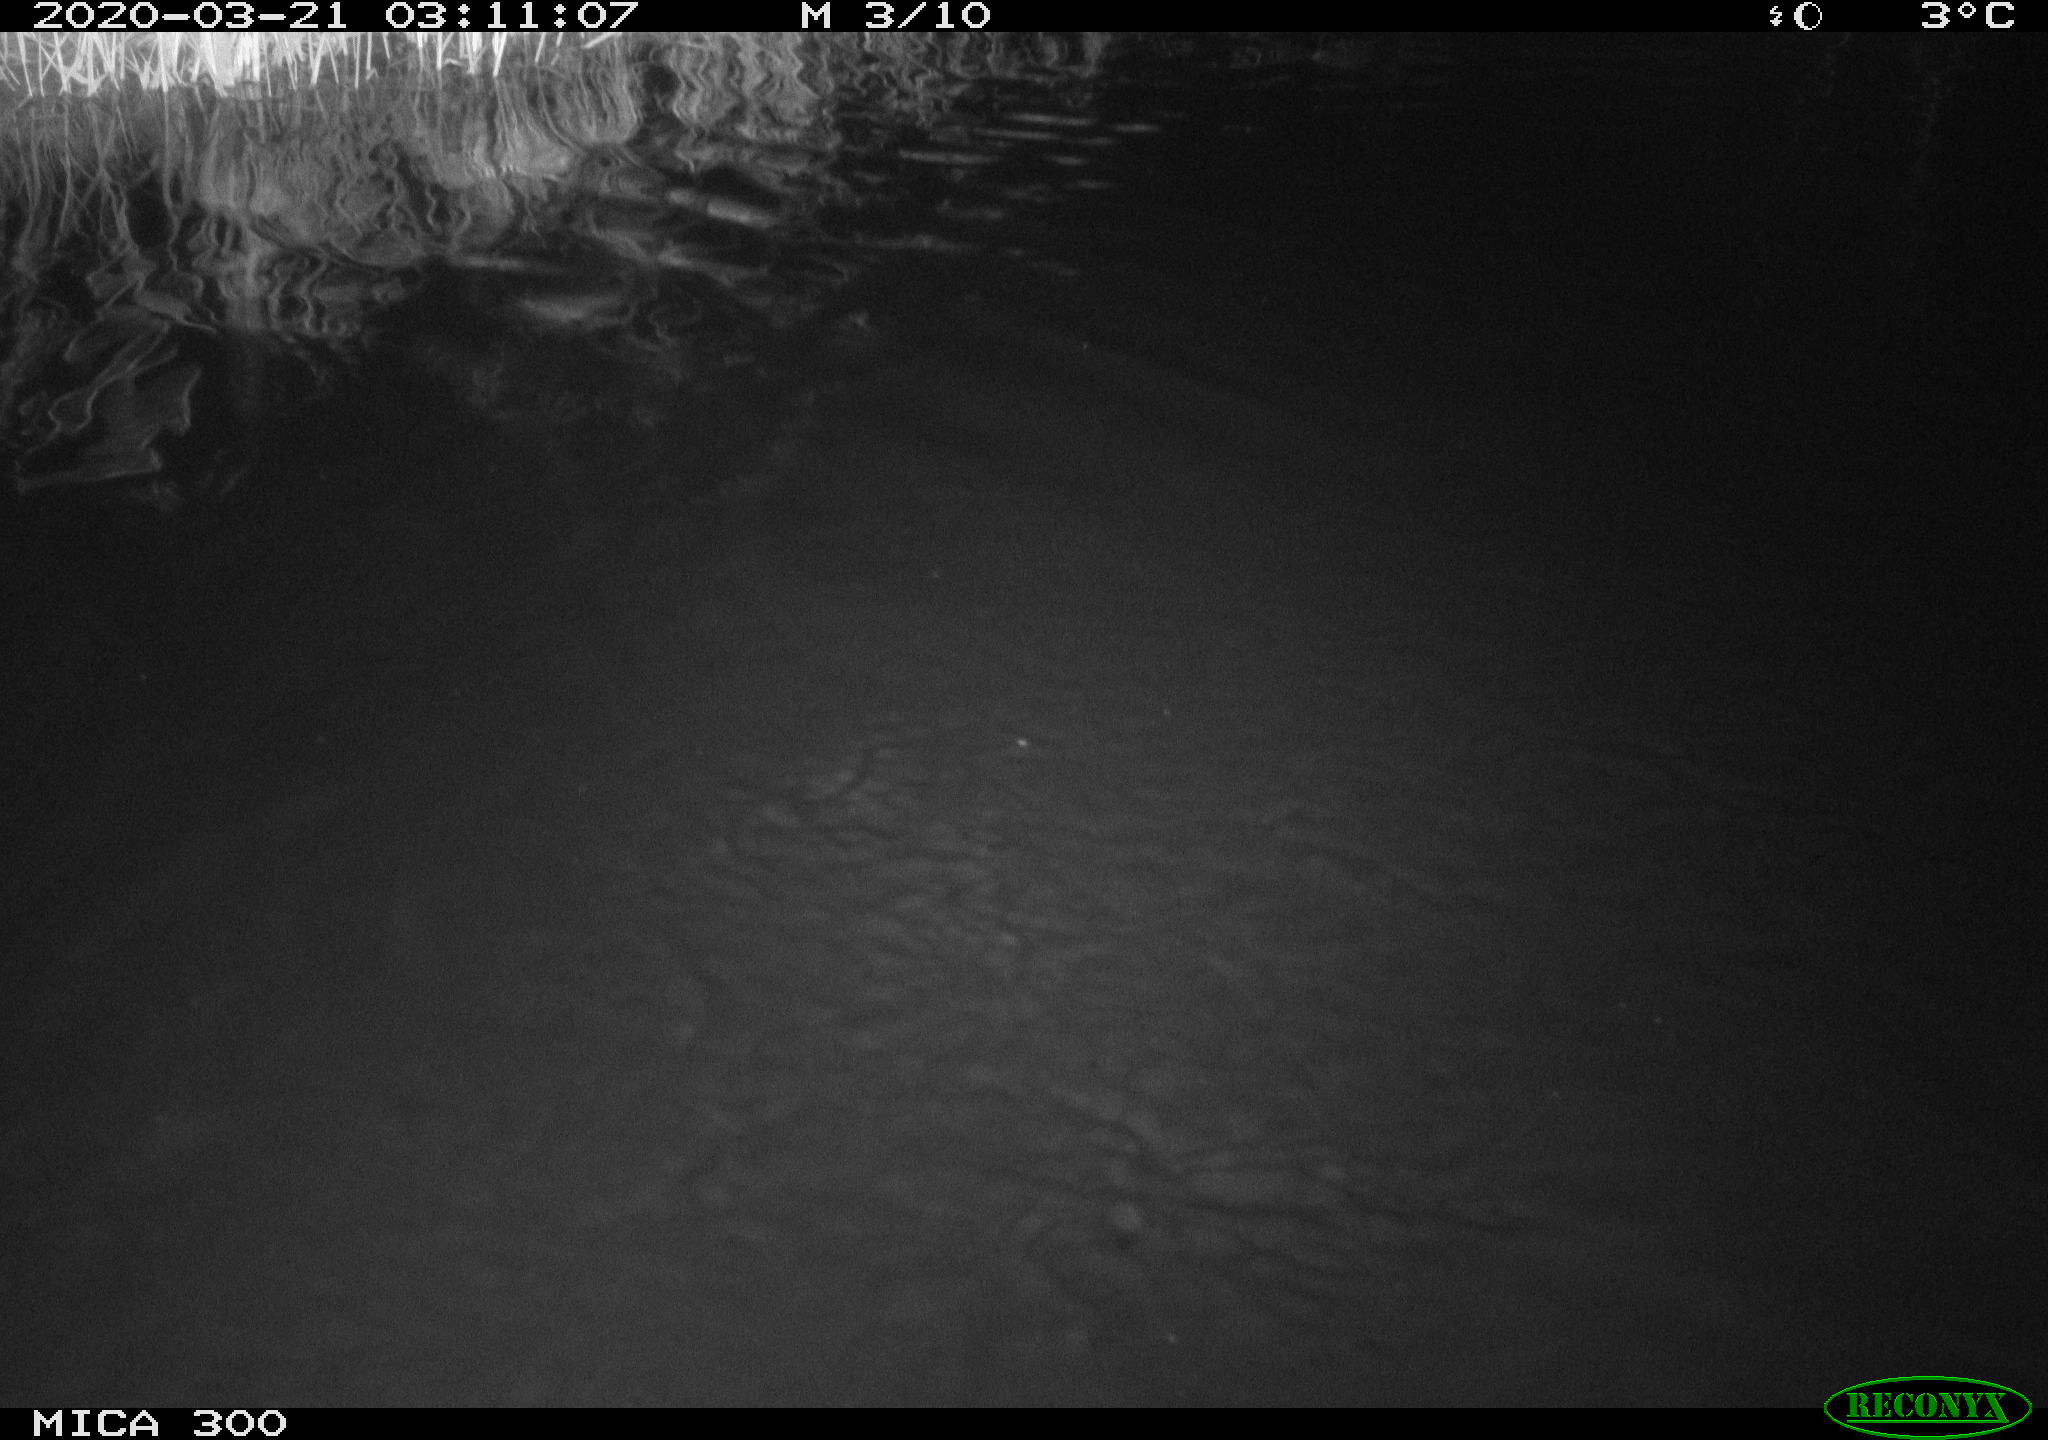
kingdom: Animalia
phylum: Chordata
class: Mammalia
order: Rodentia
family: Castoridae
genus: Castor
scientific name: Castor fiber
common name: Eurasian beaver
